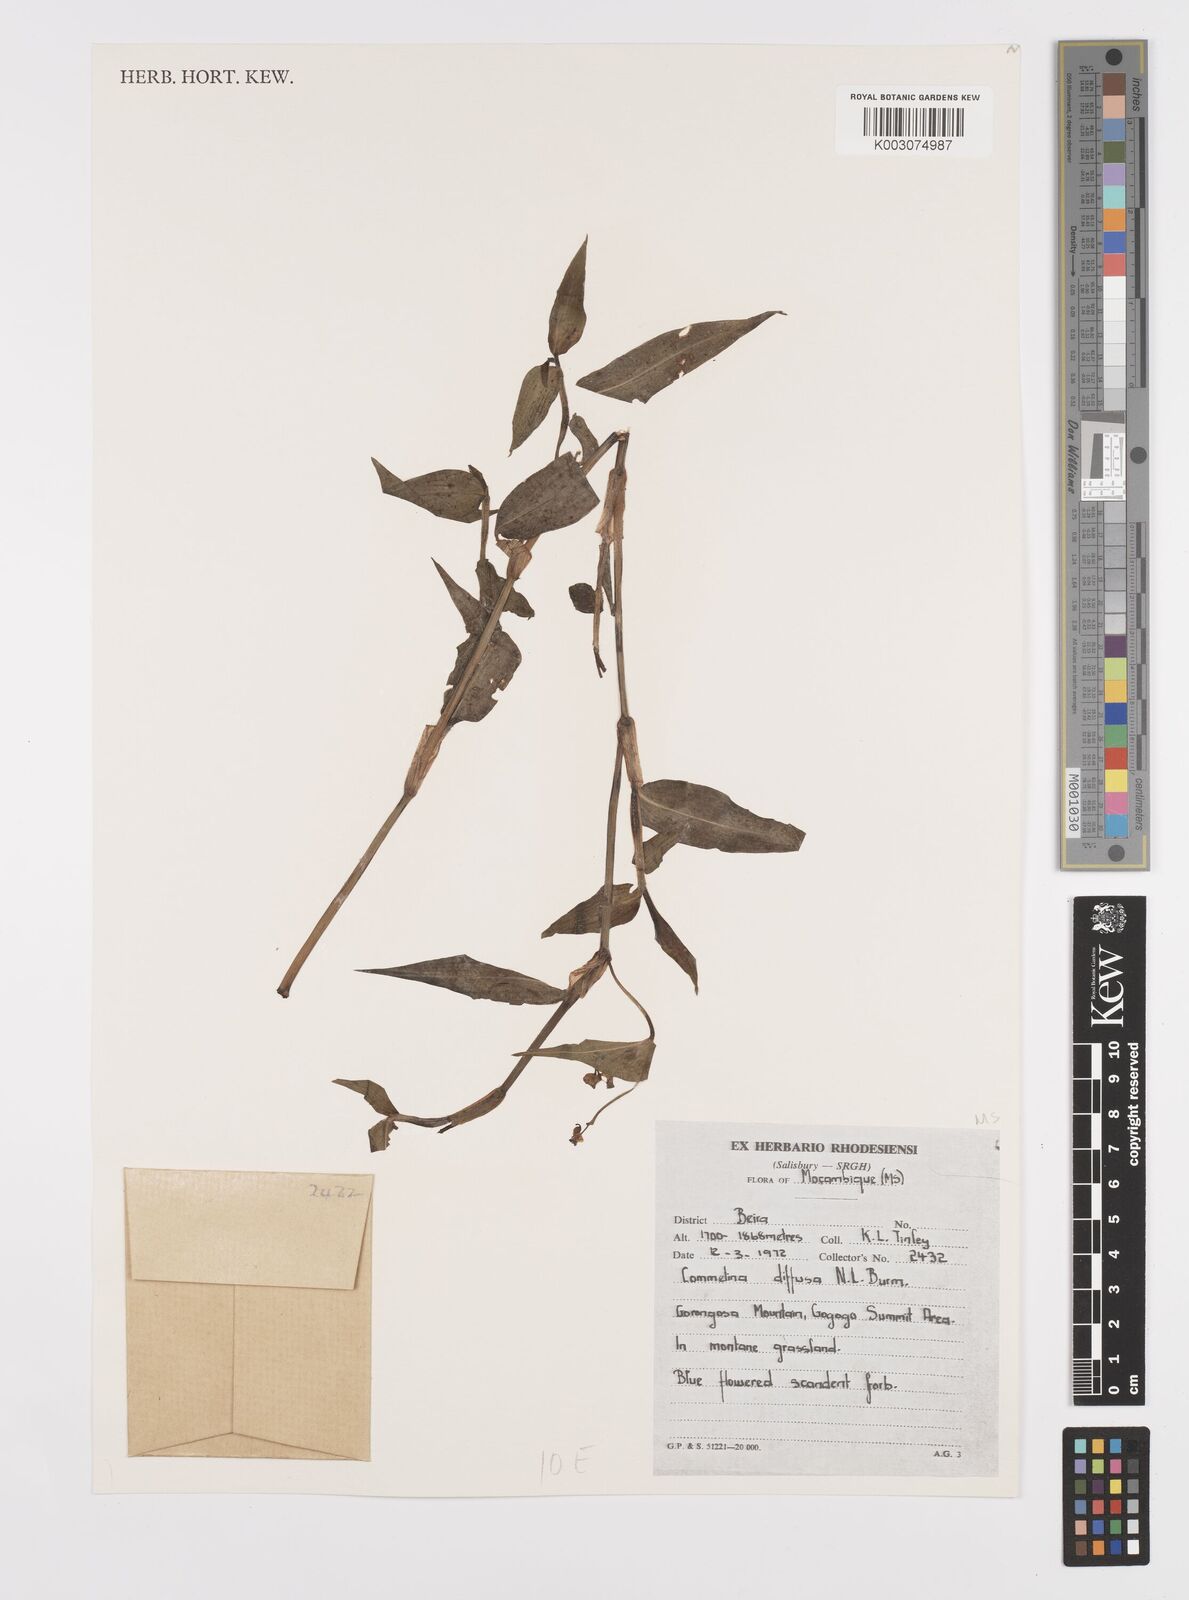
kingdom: Plantae
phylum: Tracheophyta
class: Liliopsida
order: Commelinales
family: Commelinaceae
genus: Commelina
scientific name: Commelina diffusa
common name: Climbing dayflower
